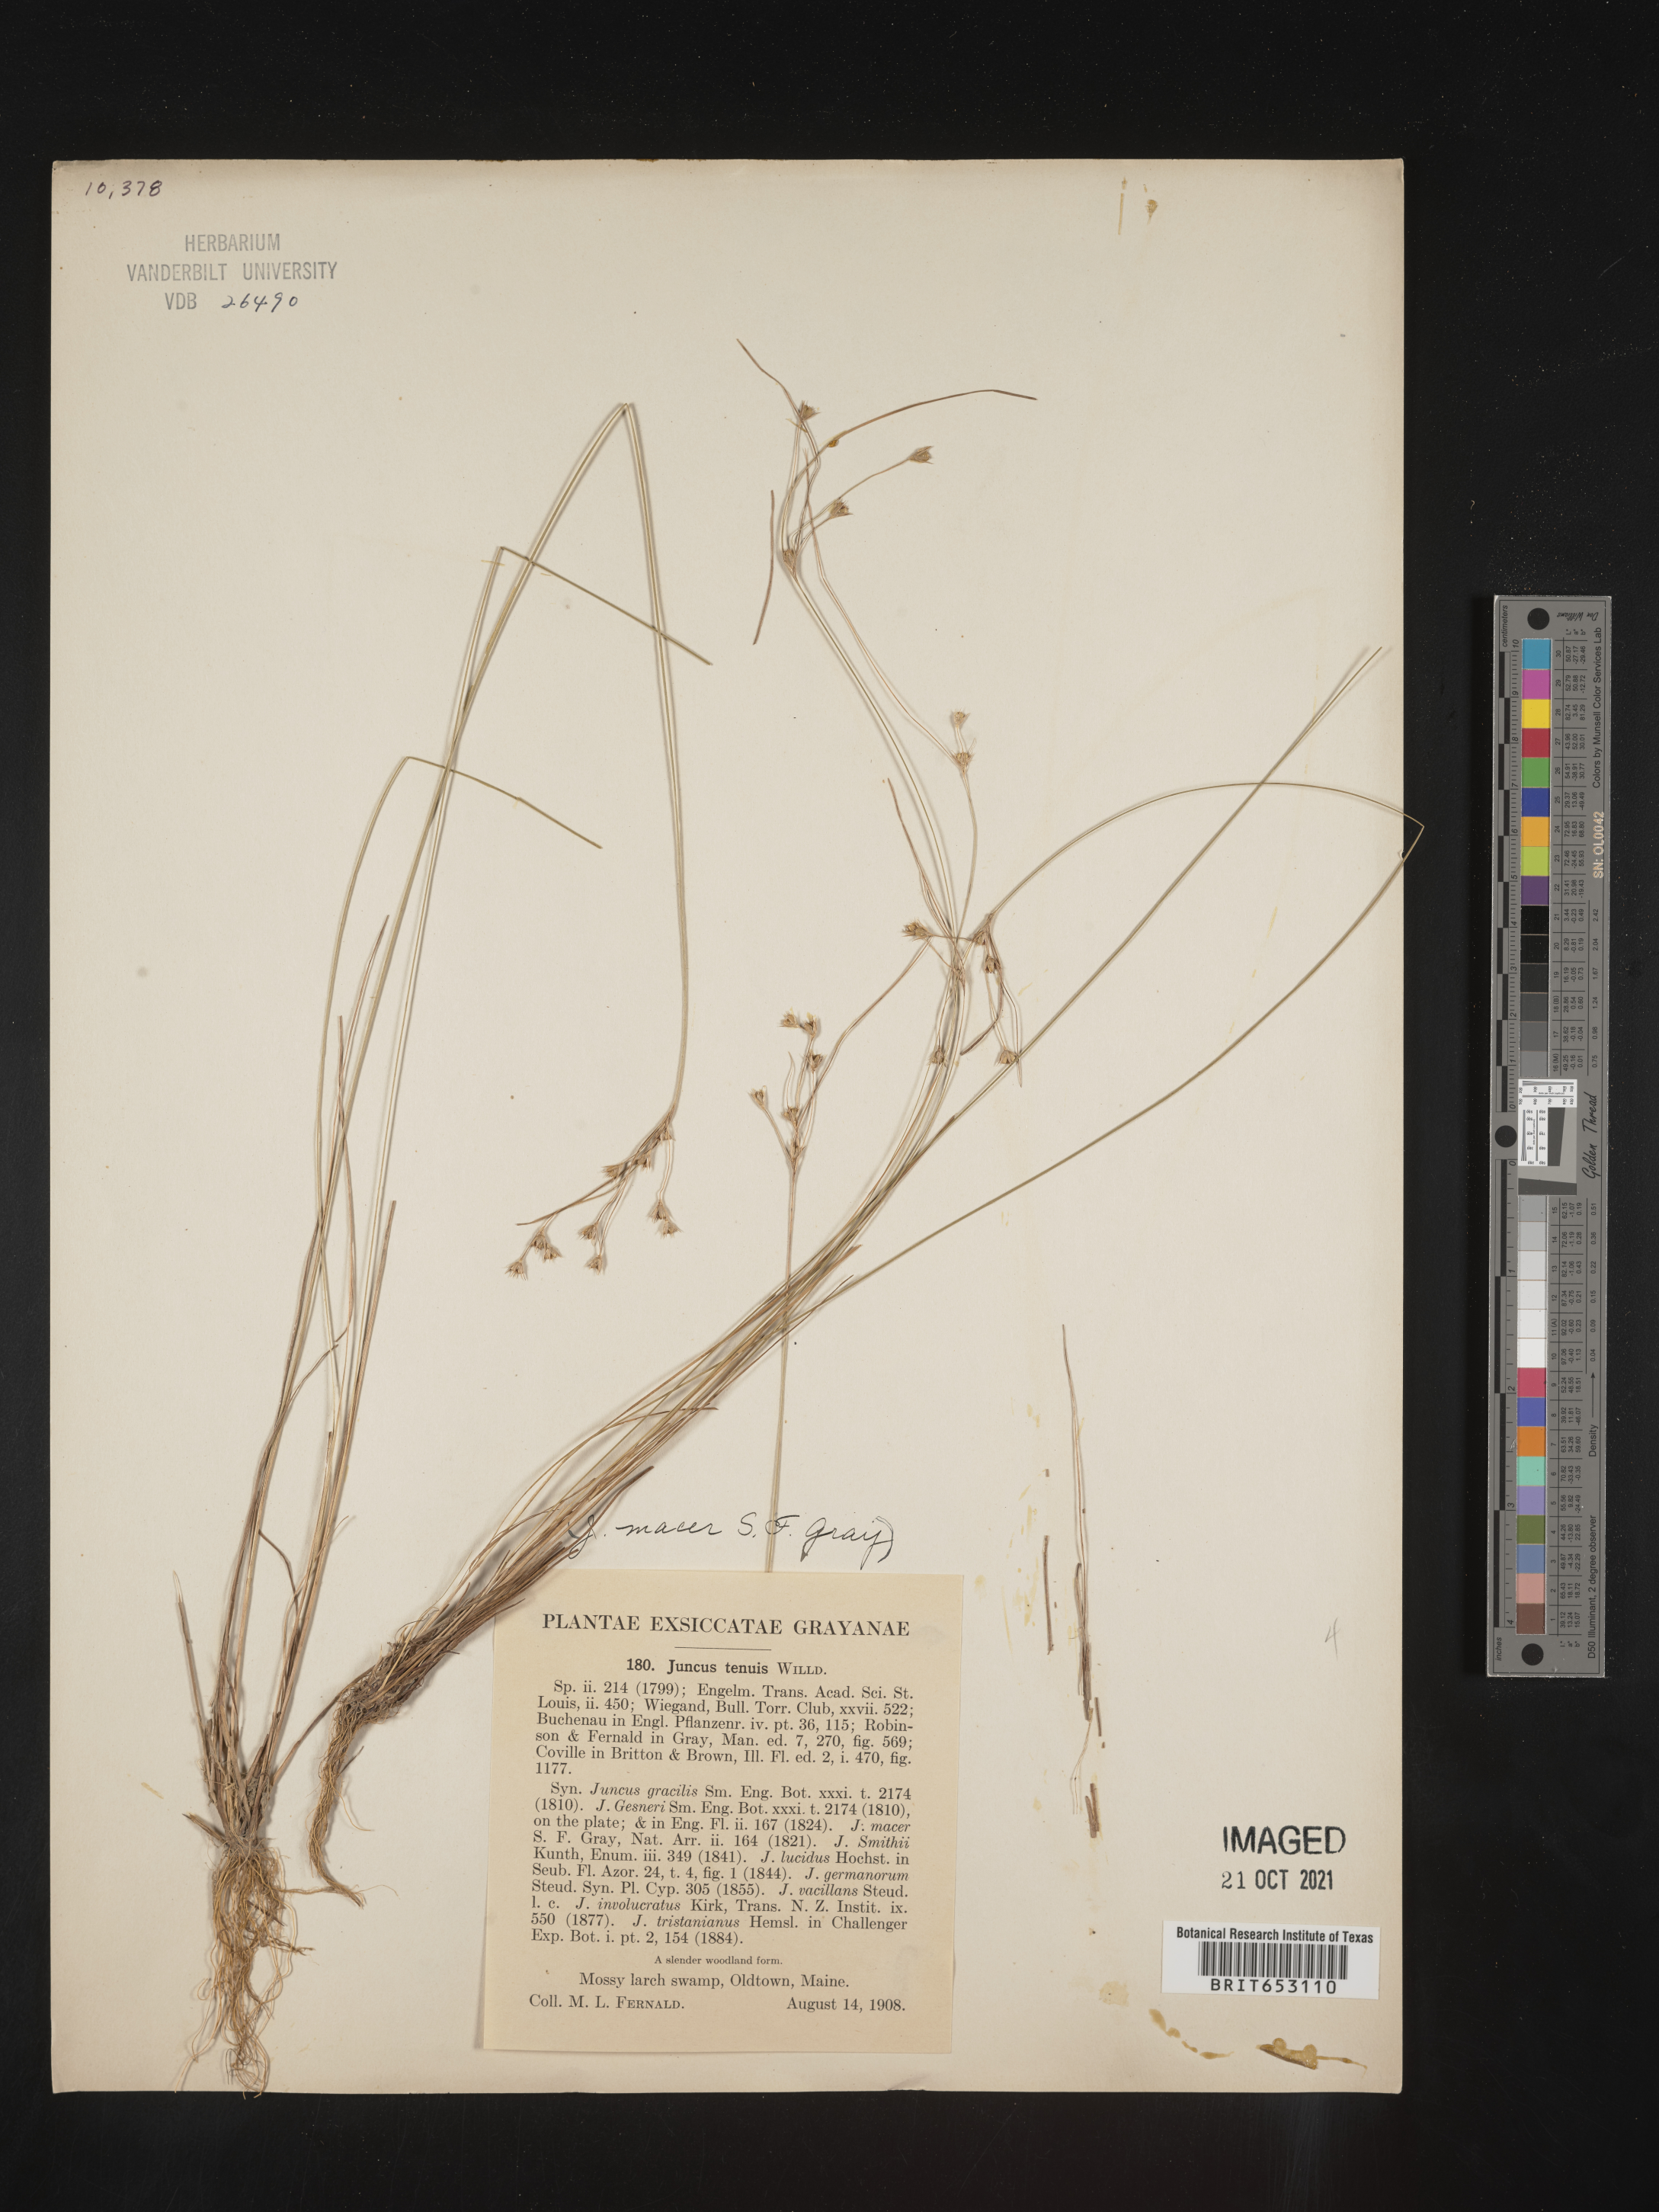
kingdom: Plantae
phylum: Tracheophyta
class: Liliopsida
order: Poales
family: Juncaceae
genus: Juncus
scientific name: Juncus tenuis
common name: Slender rush
